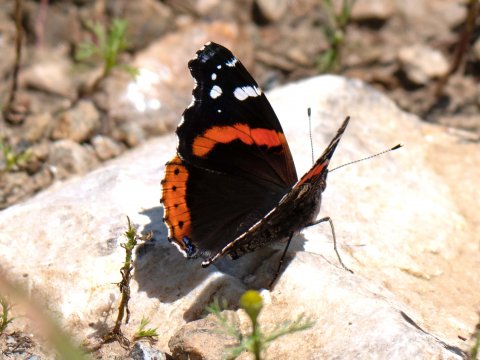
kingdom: Animalia
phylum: Arthropoda
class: Insecta
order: Lepidoptera
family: Nymphalidae
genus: Vanessa
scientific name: Vanessa atalanta
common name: Red Admiral
